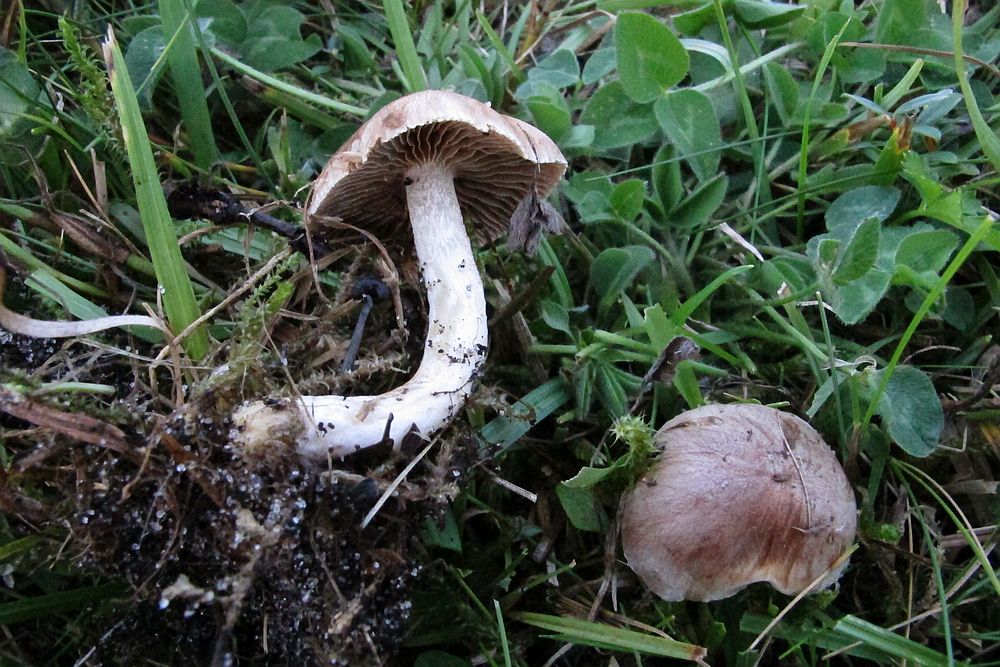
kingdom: Fungi
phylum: Basidiomycota
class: Agaricomycetes
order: Agaricales
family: Hymenogastraceae
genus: Hebeloma
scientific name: Hebeloma
